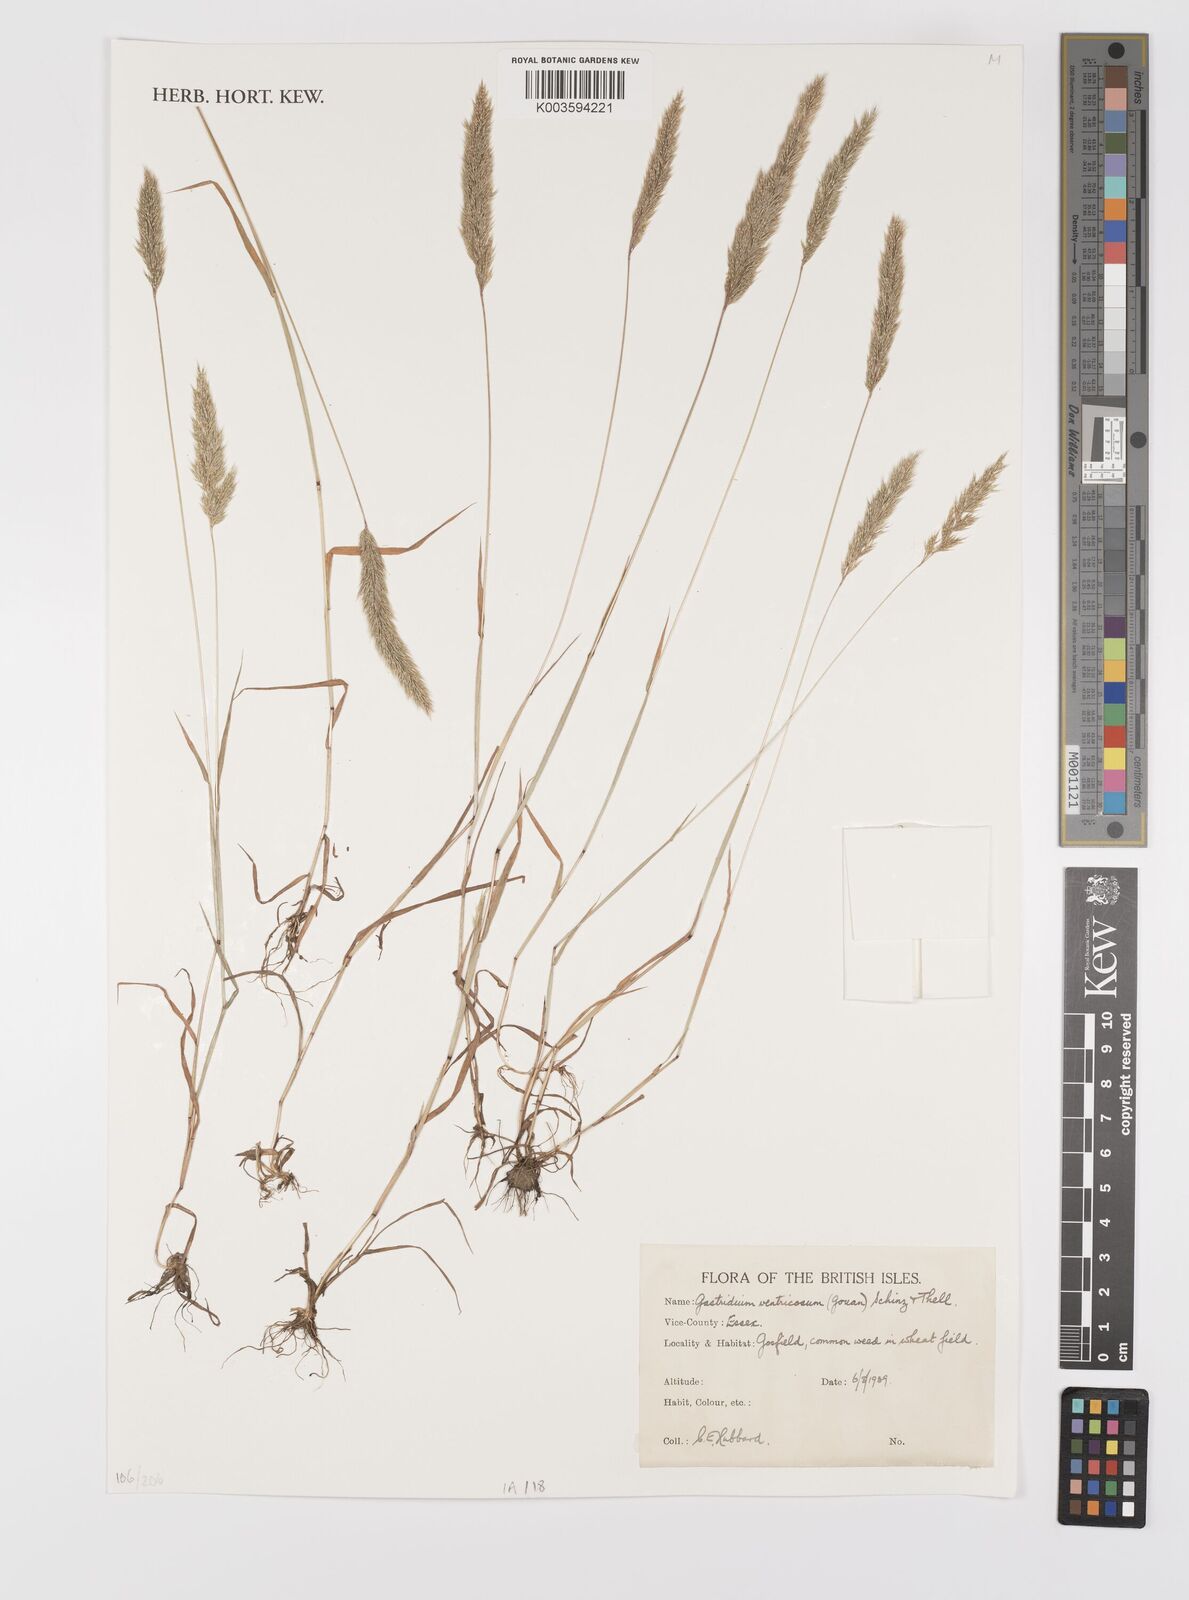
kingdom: Plantae
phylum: Tracheophyta
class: Liliopsida
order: Poales
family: Poaceae
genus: Gastridium
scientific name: Gastridium ventricosum
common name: Nit-grass
